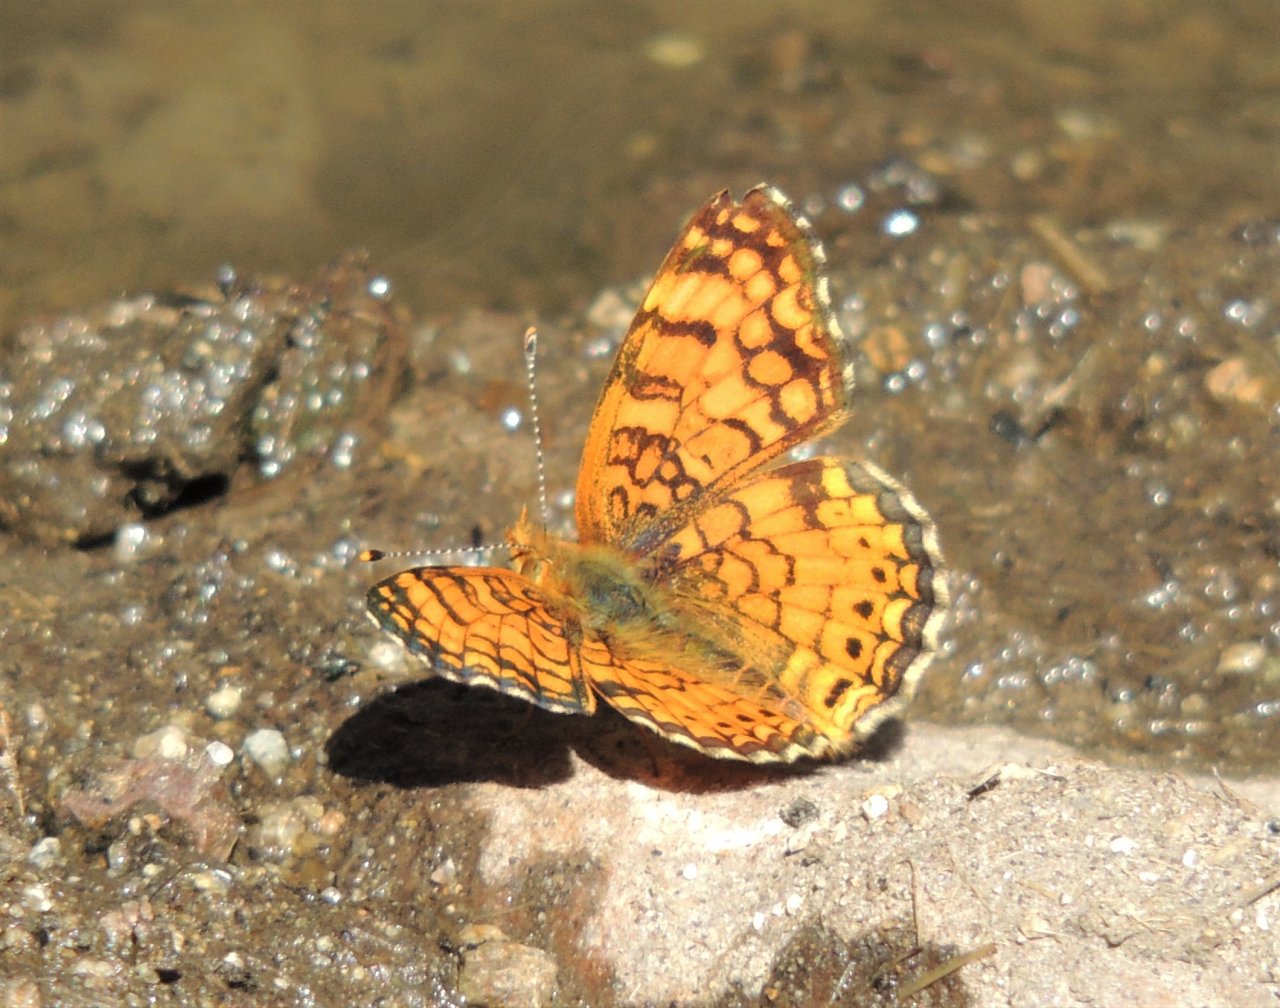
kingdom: Animalia
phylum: Arthropoda
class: Insecta
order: Lepidoptera
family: Nymphalidae
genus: Eresia
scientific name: Eresia aveyrona
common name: Mylitta Crescent
